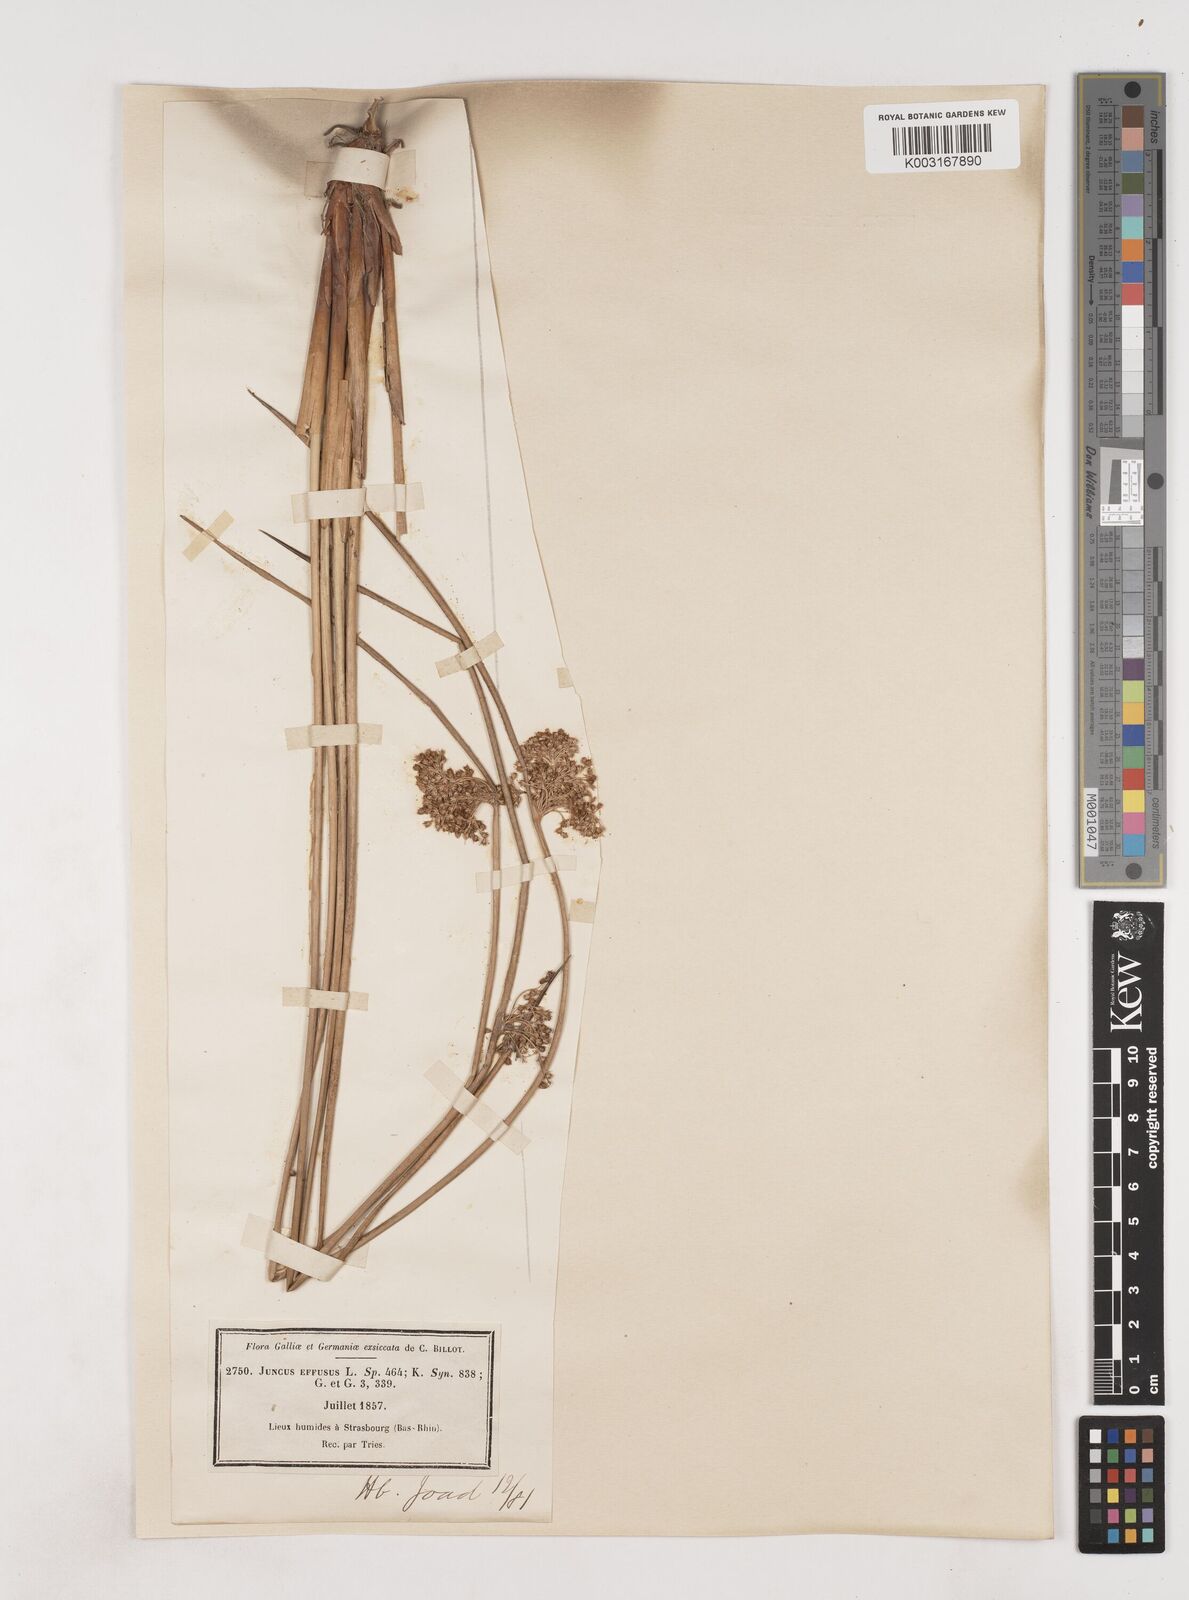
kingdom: Plantae
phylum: Tracheophyta
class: Liliopsida
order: Poales
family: Juncaceae
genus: Juncus
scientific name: Juncus effusus
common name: Soft rush
